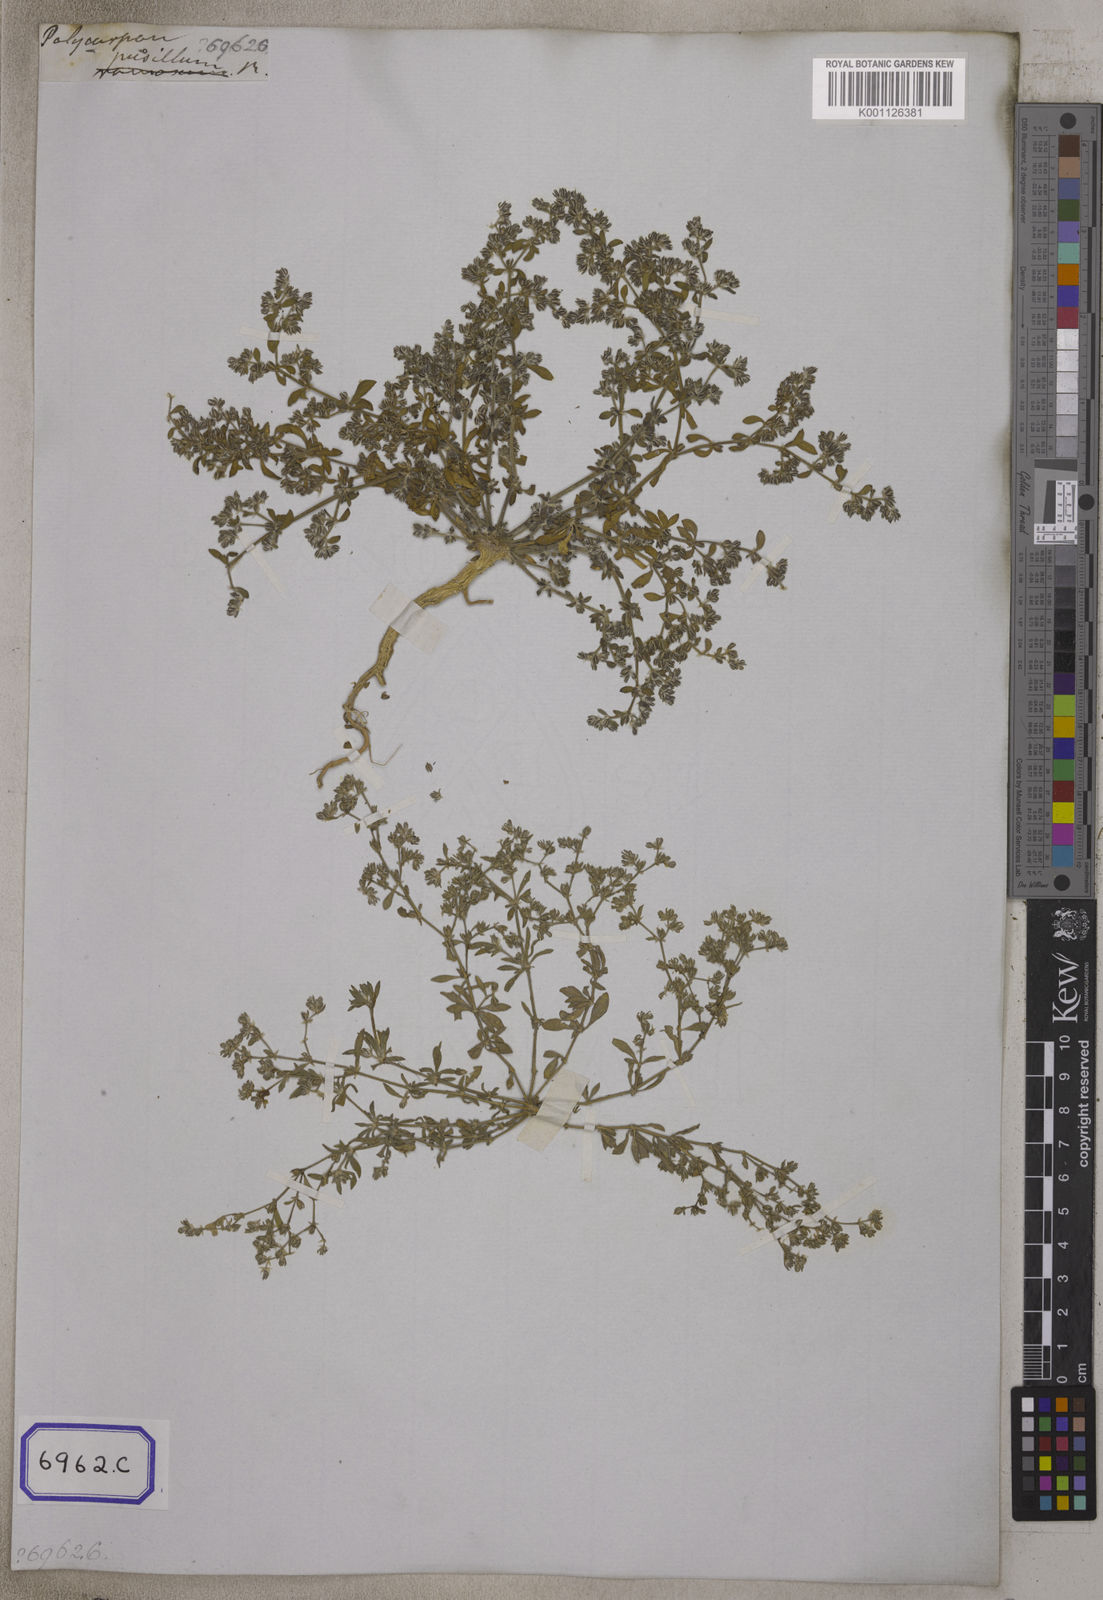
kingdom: Plantae
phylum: Tracheophyta
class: Magnoliopsida
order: Caryophyllales
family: Caryophyllaceae
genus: Hapalosia
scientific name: Hapalosia
